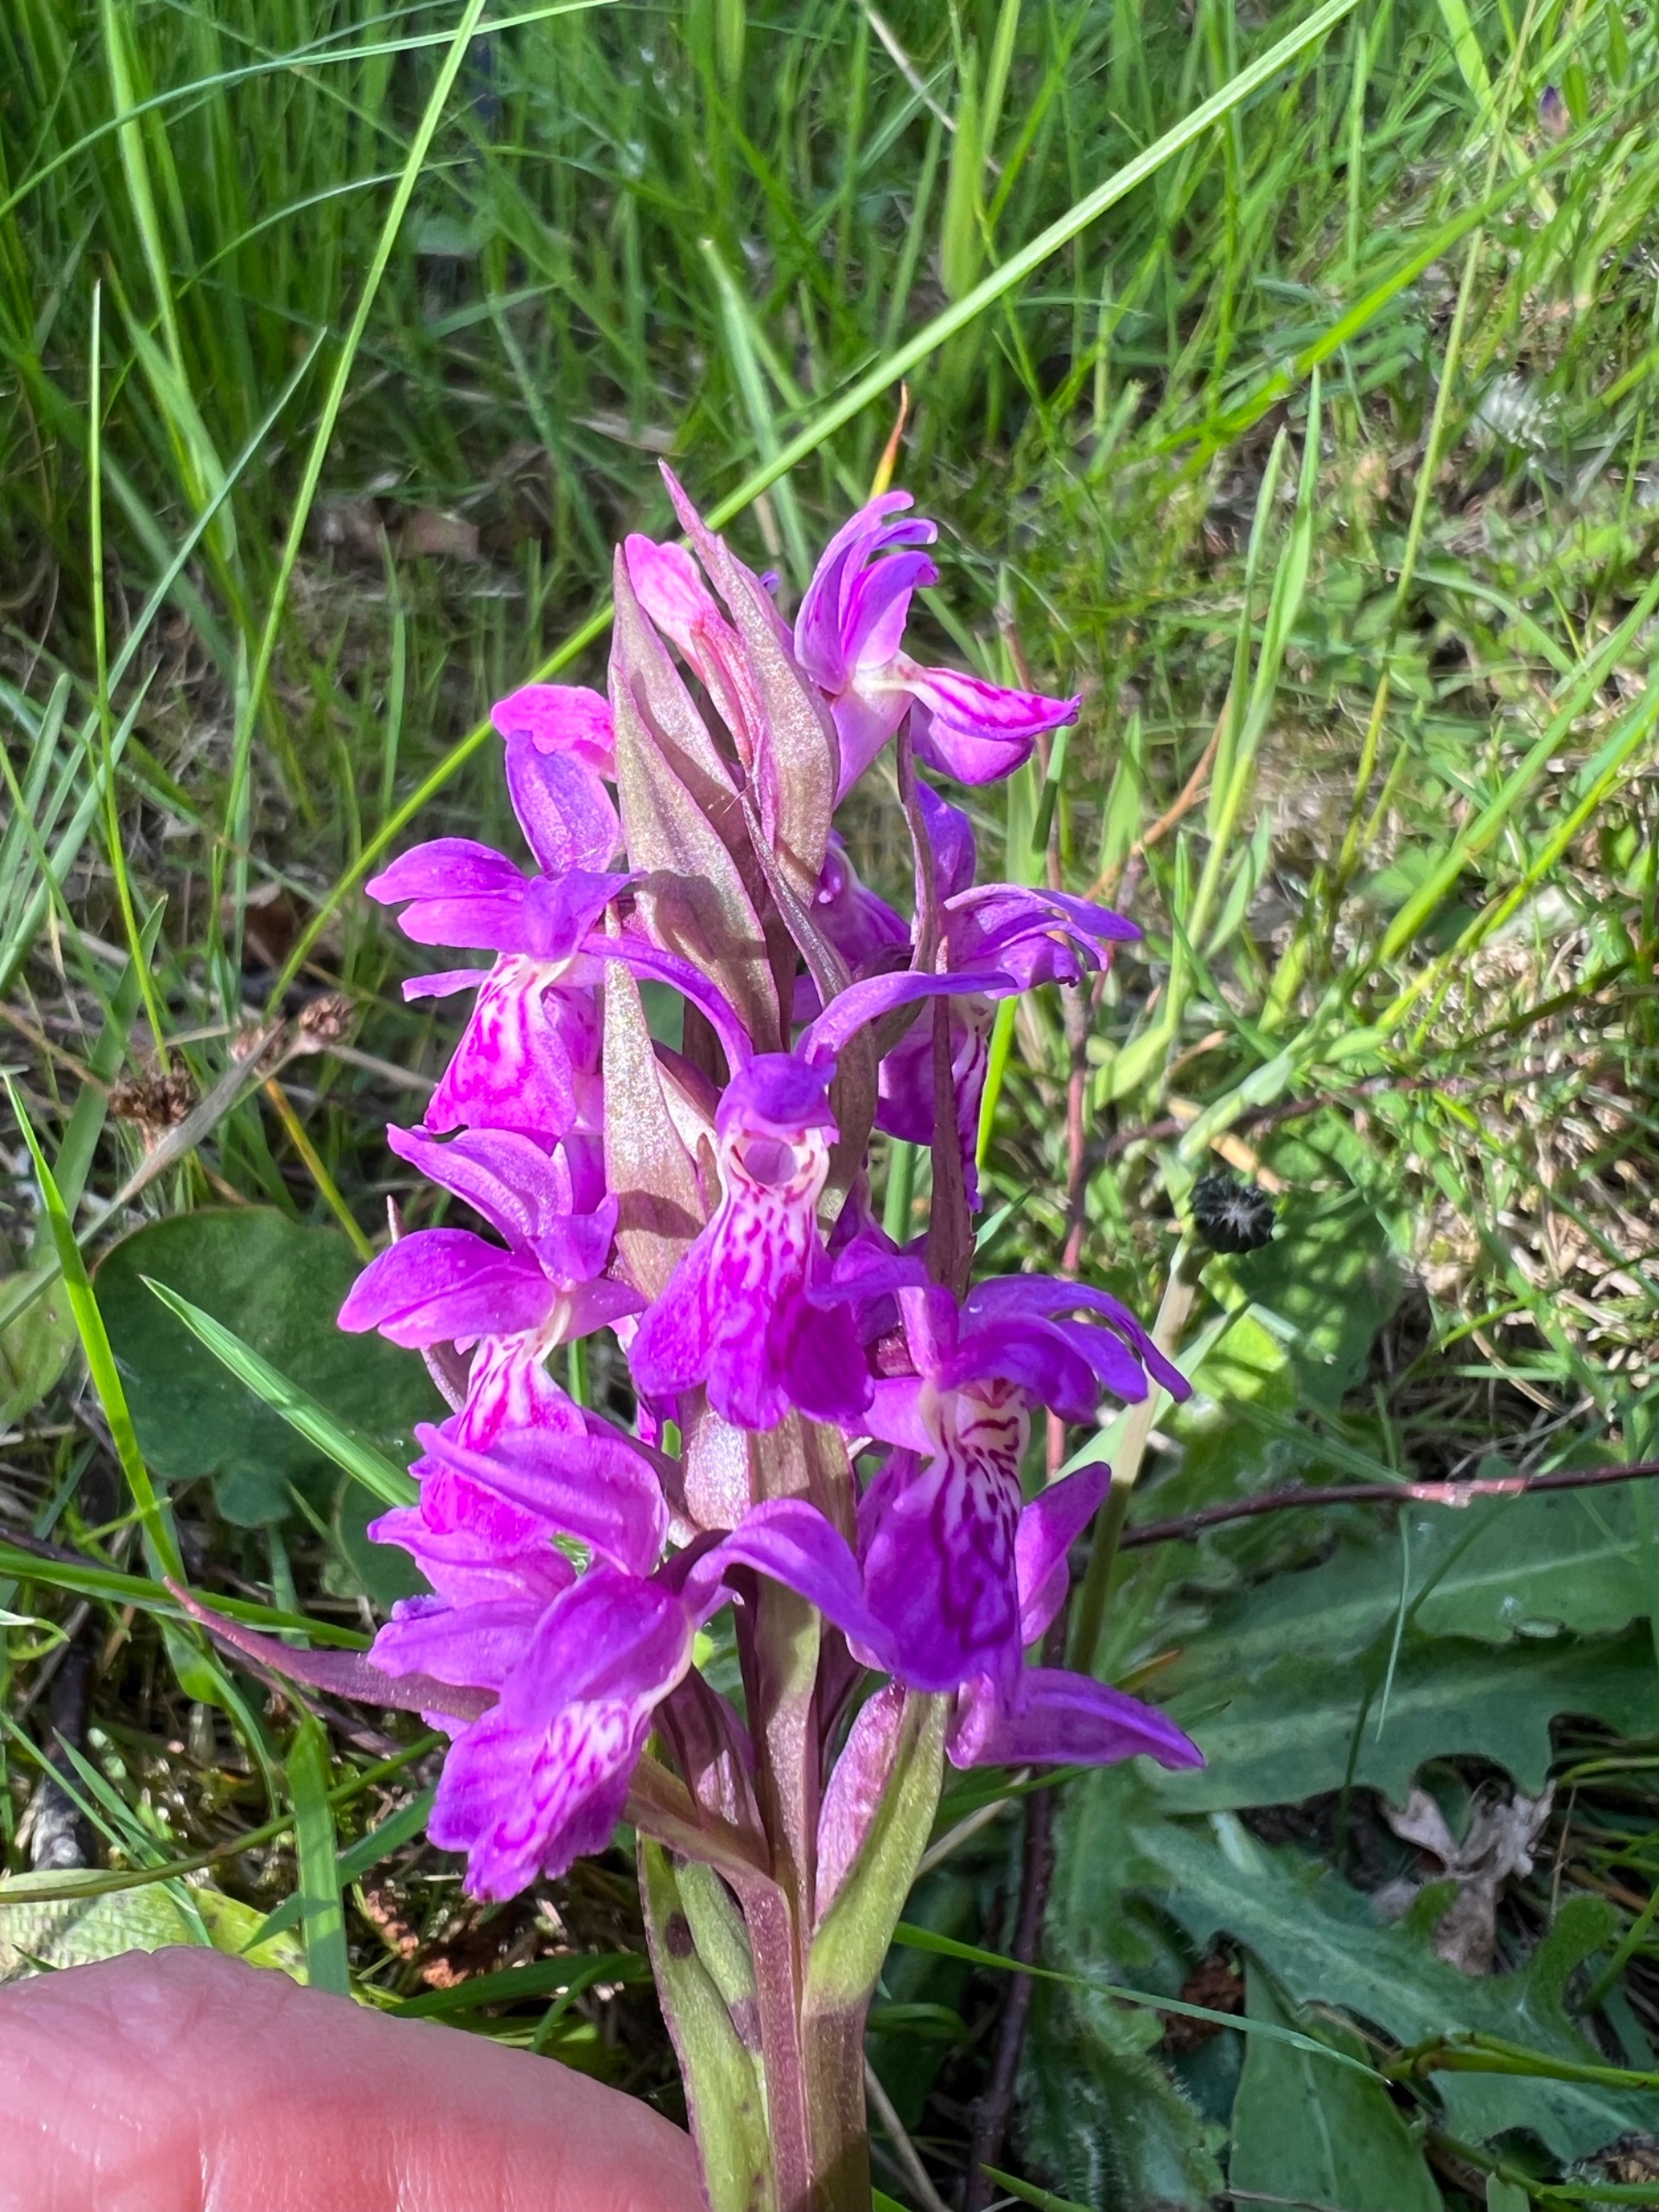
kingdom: Plantae
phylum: Tracheophyta
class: Liliopsida
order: Asparagales
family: Orchidaceae
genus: Dactylorhiza
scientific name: Dactylorhiza majalis
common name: Maj-gøgeurt
